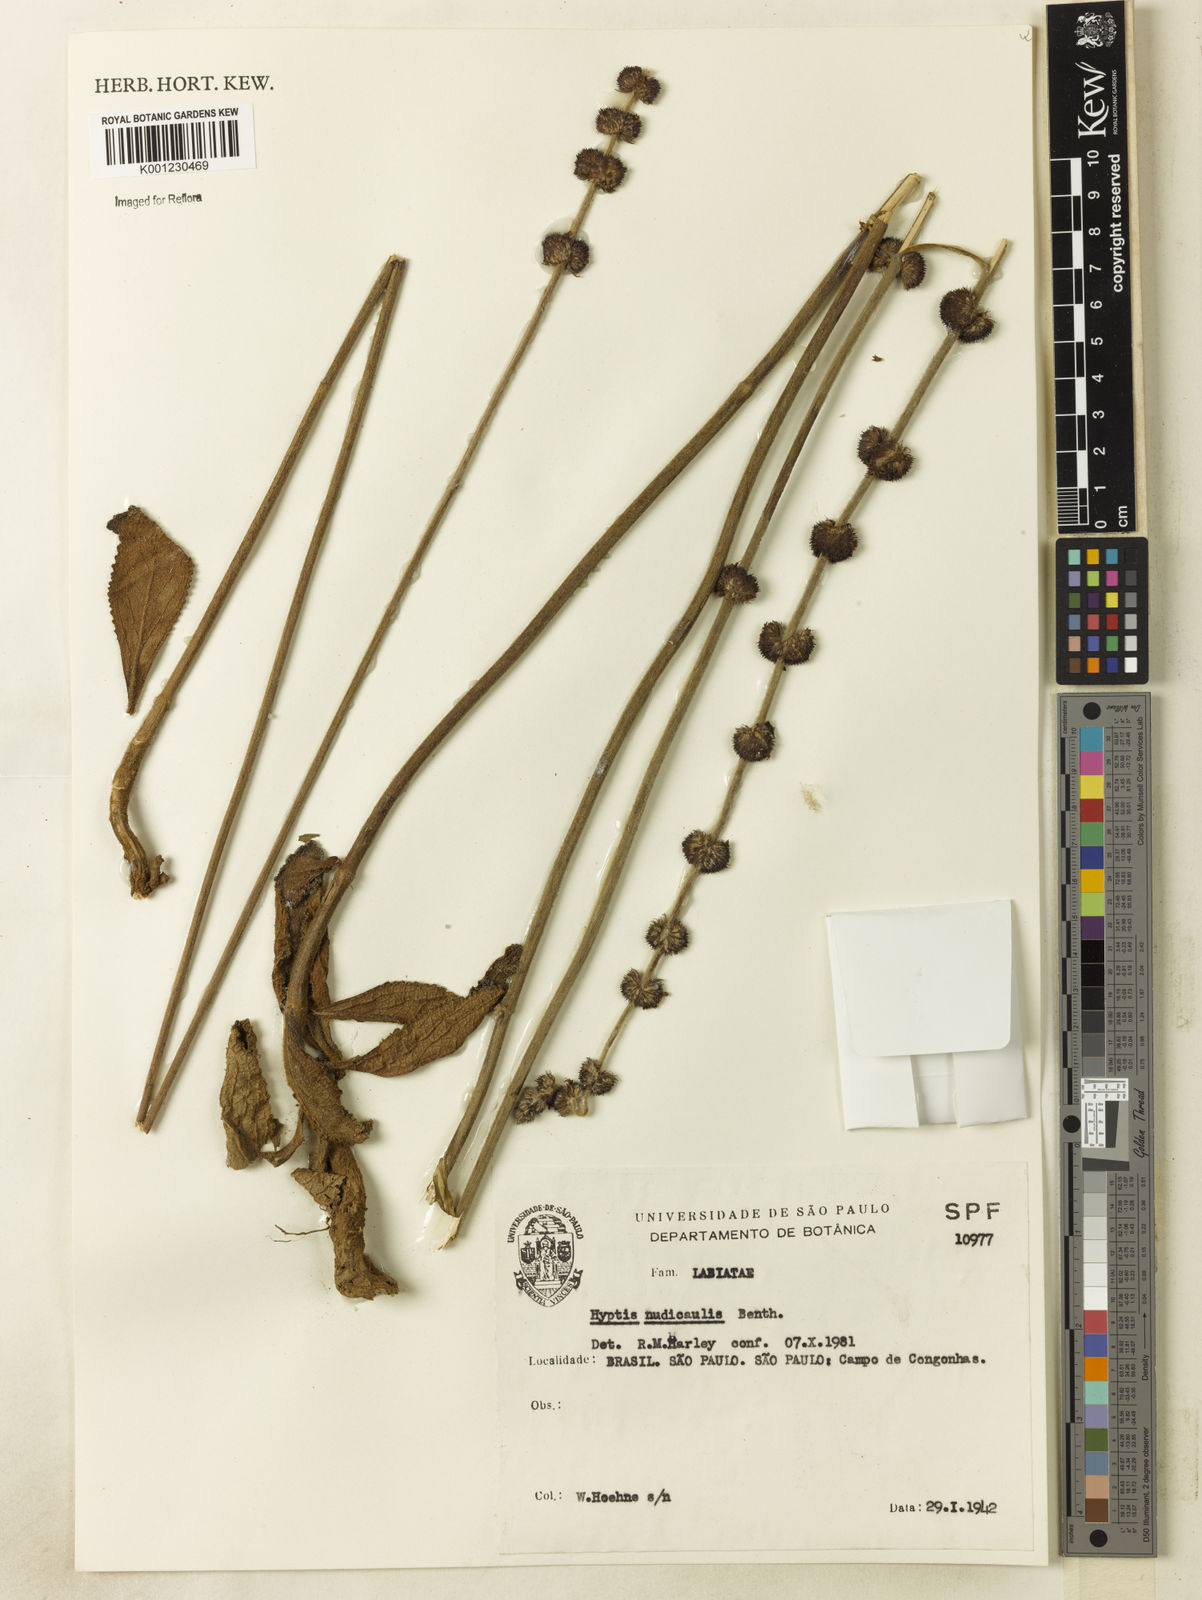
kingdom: Plantae
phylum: Tracheophyta
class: Magnoliopsida
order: Lamiales
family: Lamiaceae
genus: Hyptis
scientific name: Hyptis nudicaulis
